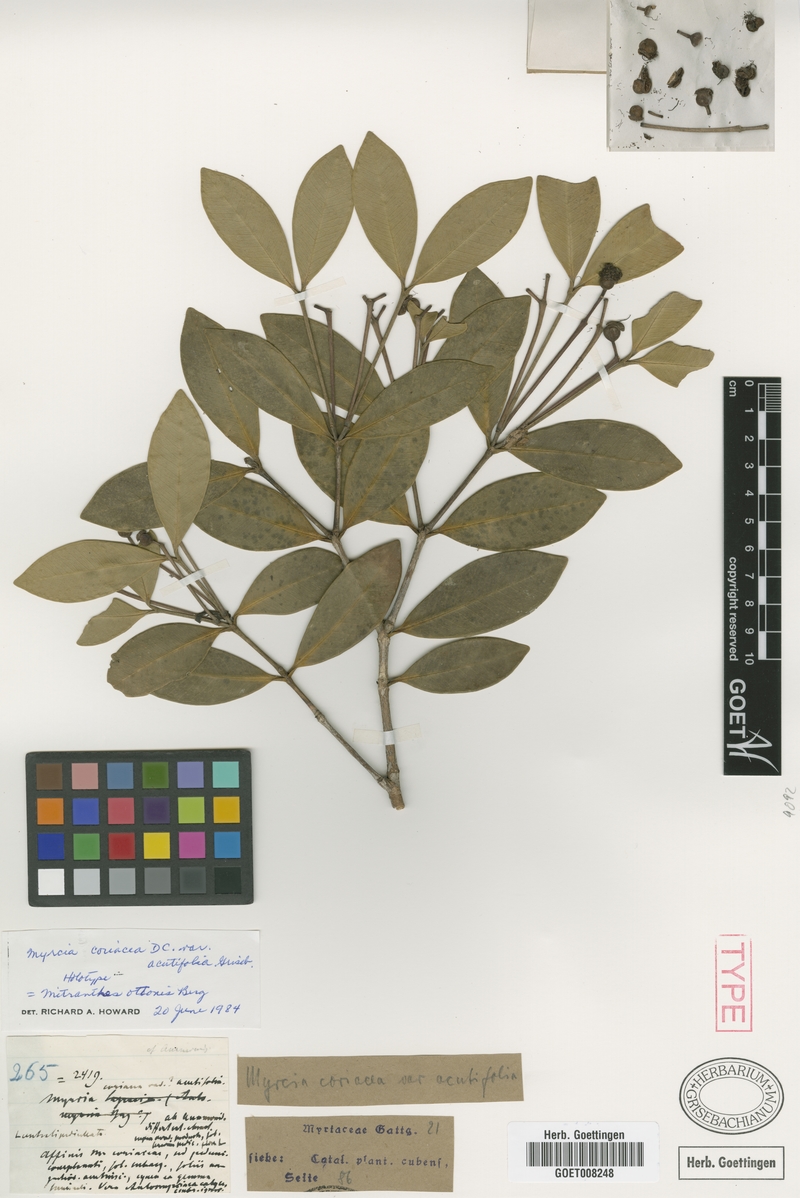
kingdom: Plantae
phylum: Tracheophyta
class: Magnoliopsida
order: Myrtales
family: Myrtaceae
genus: Myrcia
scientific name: Myrcia ottonis
